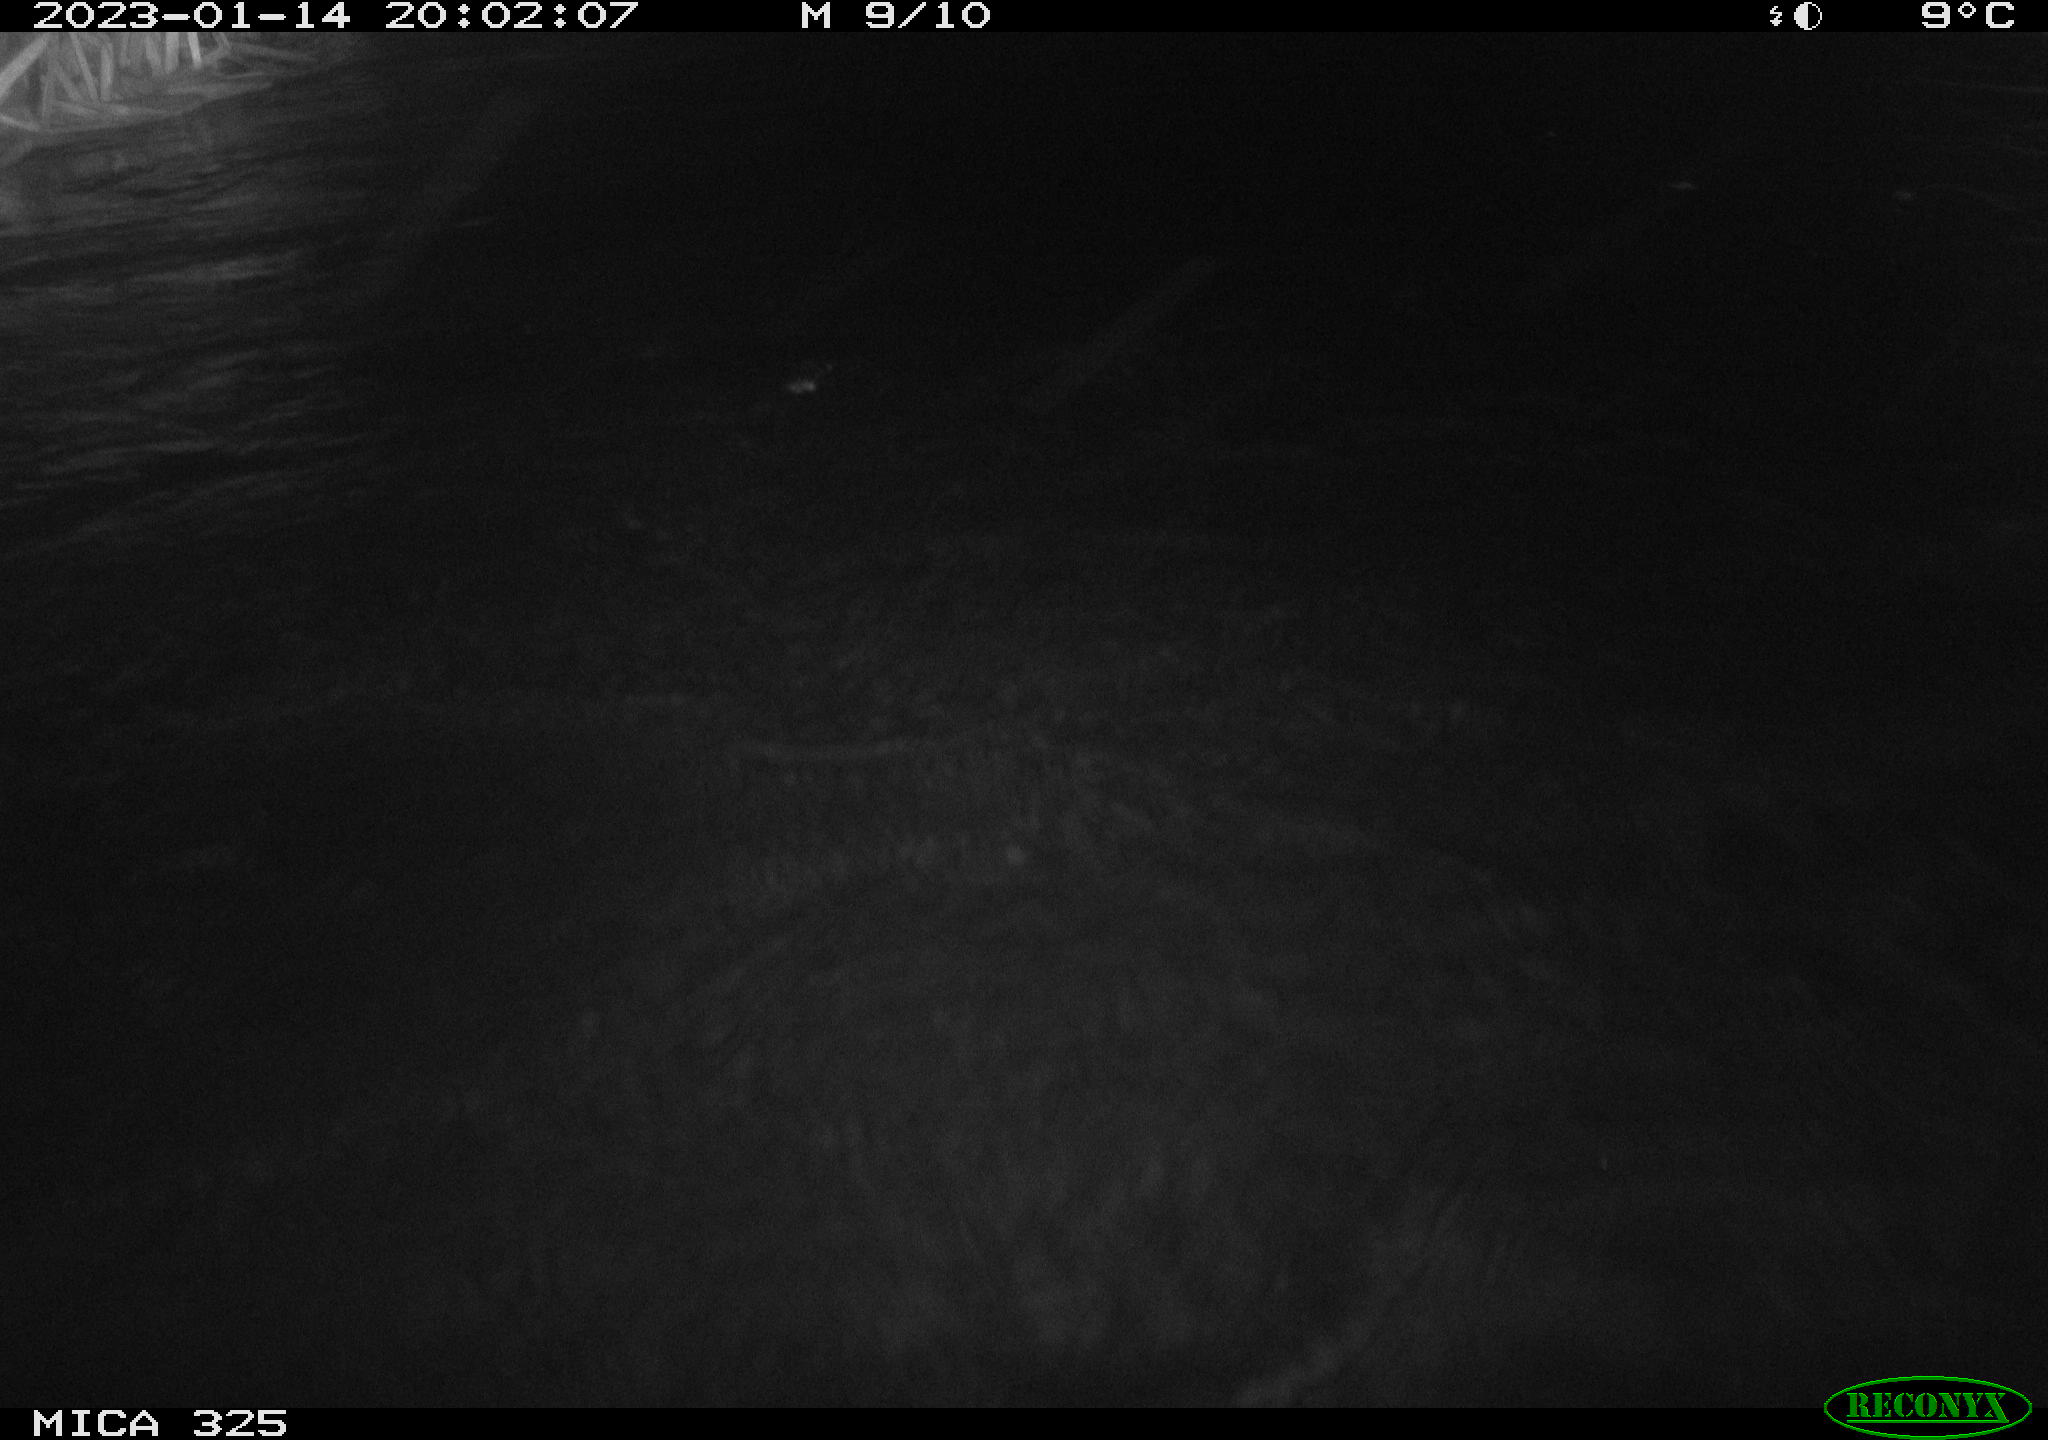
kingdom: Animalia
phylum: Chordata
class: Mammalia
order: Rodentia
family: Cricetidae
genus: Ondatra
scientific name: Ondatra zibethicus
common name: Muskrat
